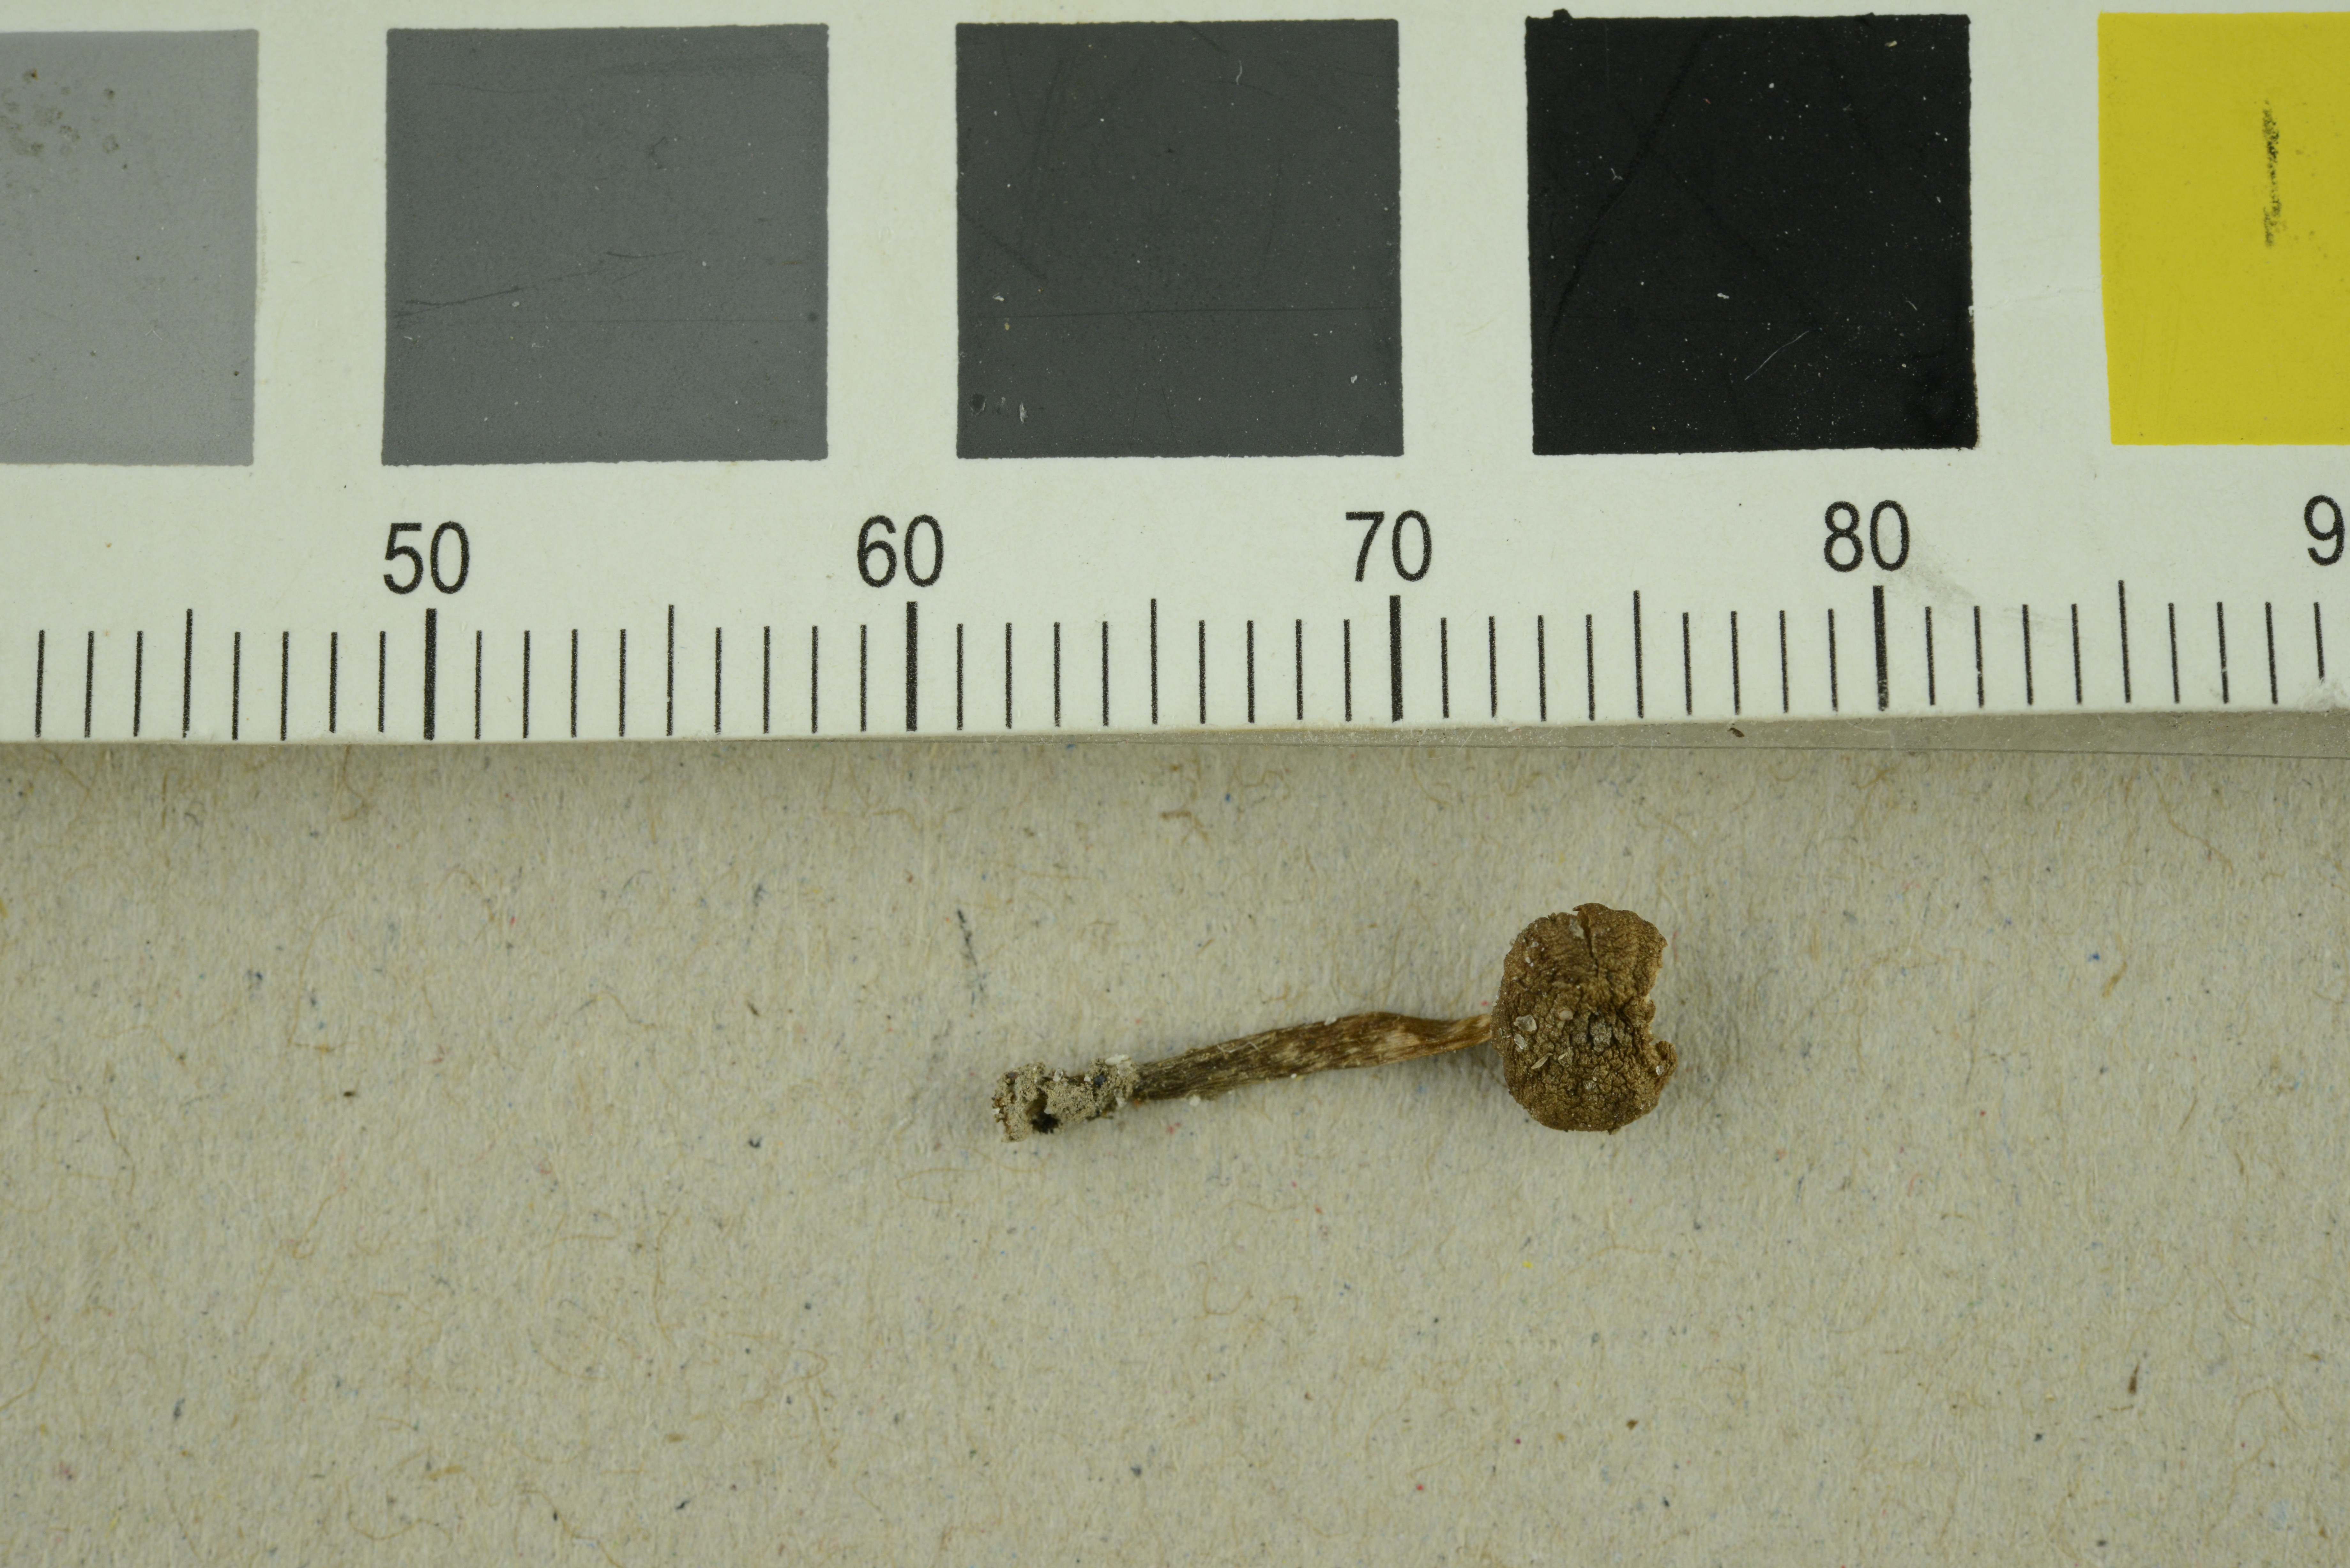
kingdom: Fungi
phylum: Basidiomycota
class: Agaricomycetes
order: Agaricales
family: Hymenogastraceae
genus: Galerina
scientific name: Galerina lacustris
